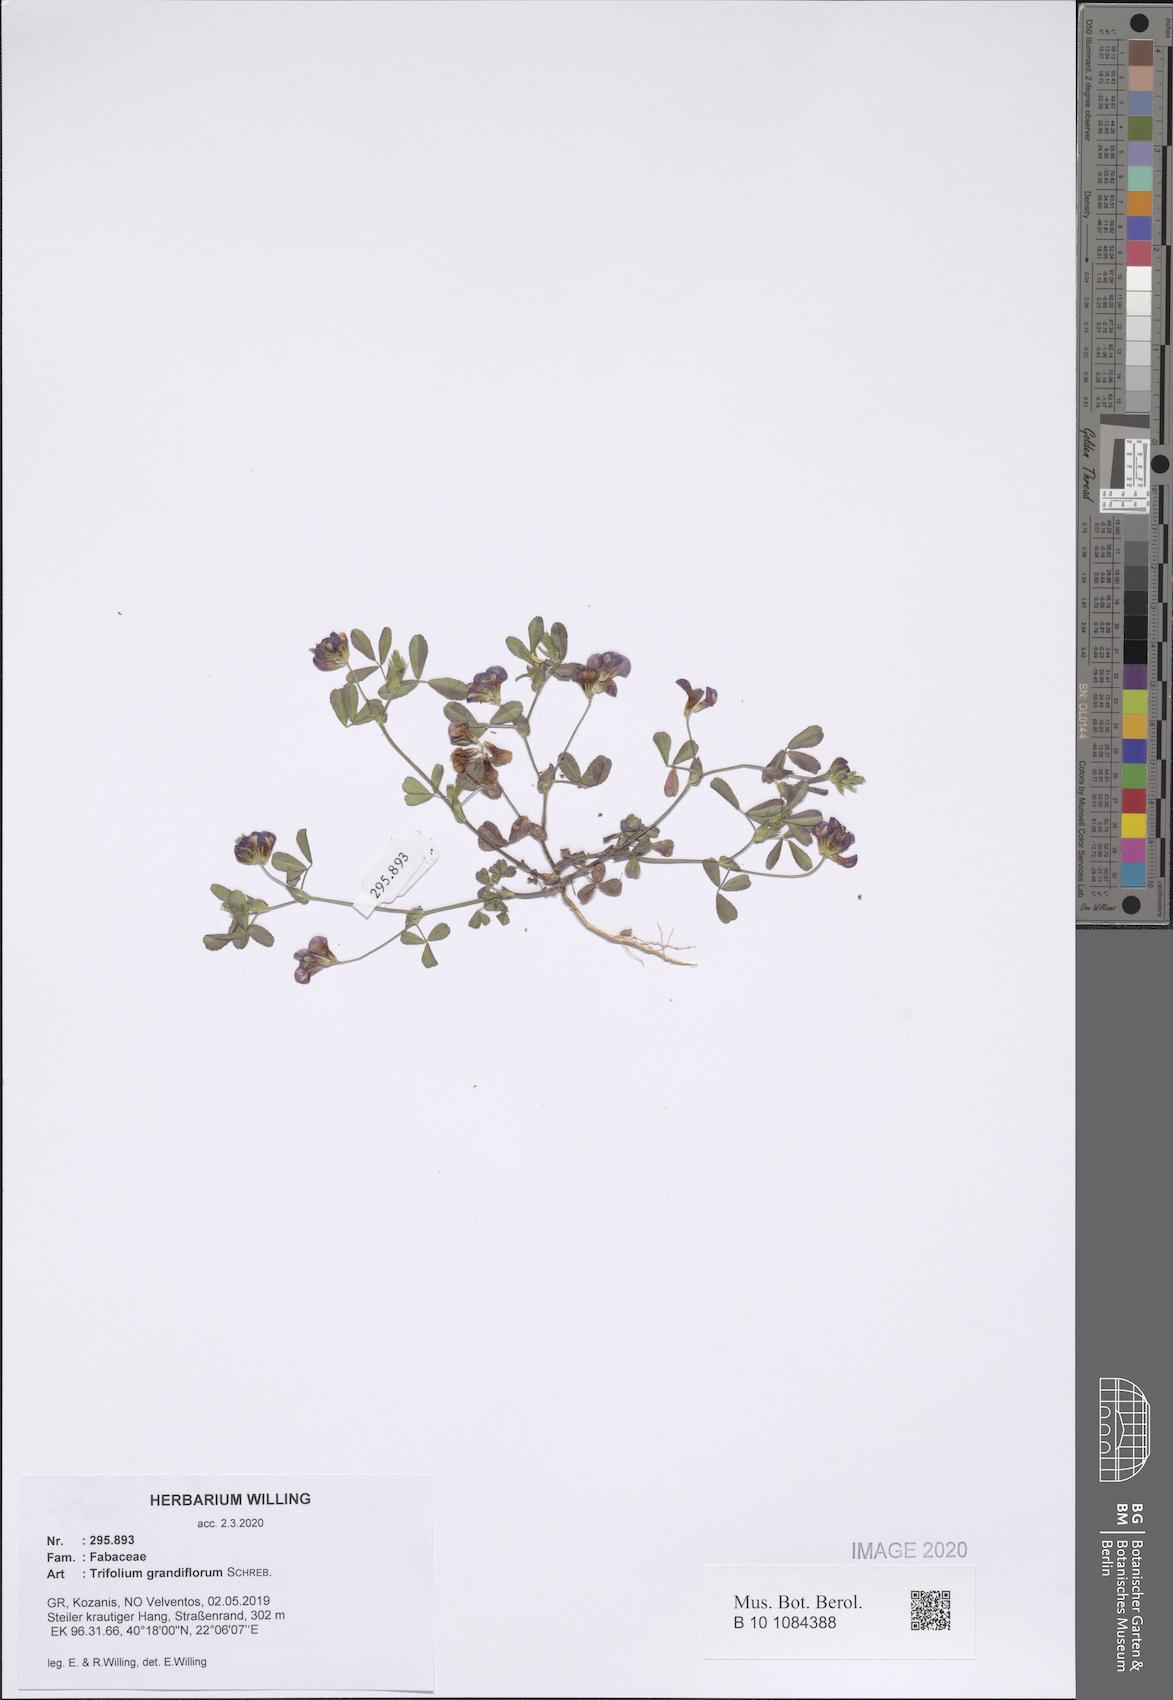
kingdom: Plantae
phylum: Tracheophyta
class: Magnoliopsida
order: Fabales
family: Fabaceae
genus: Trifolium
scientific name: Trifolium grandiflorum
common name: Large-flower hop clover
